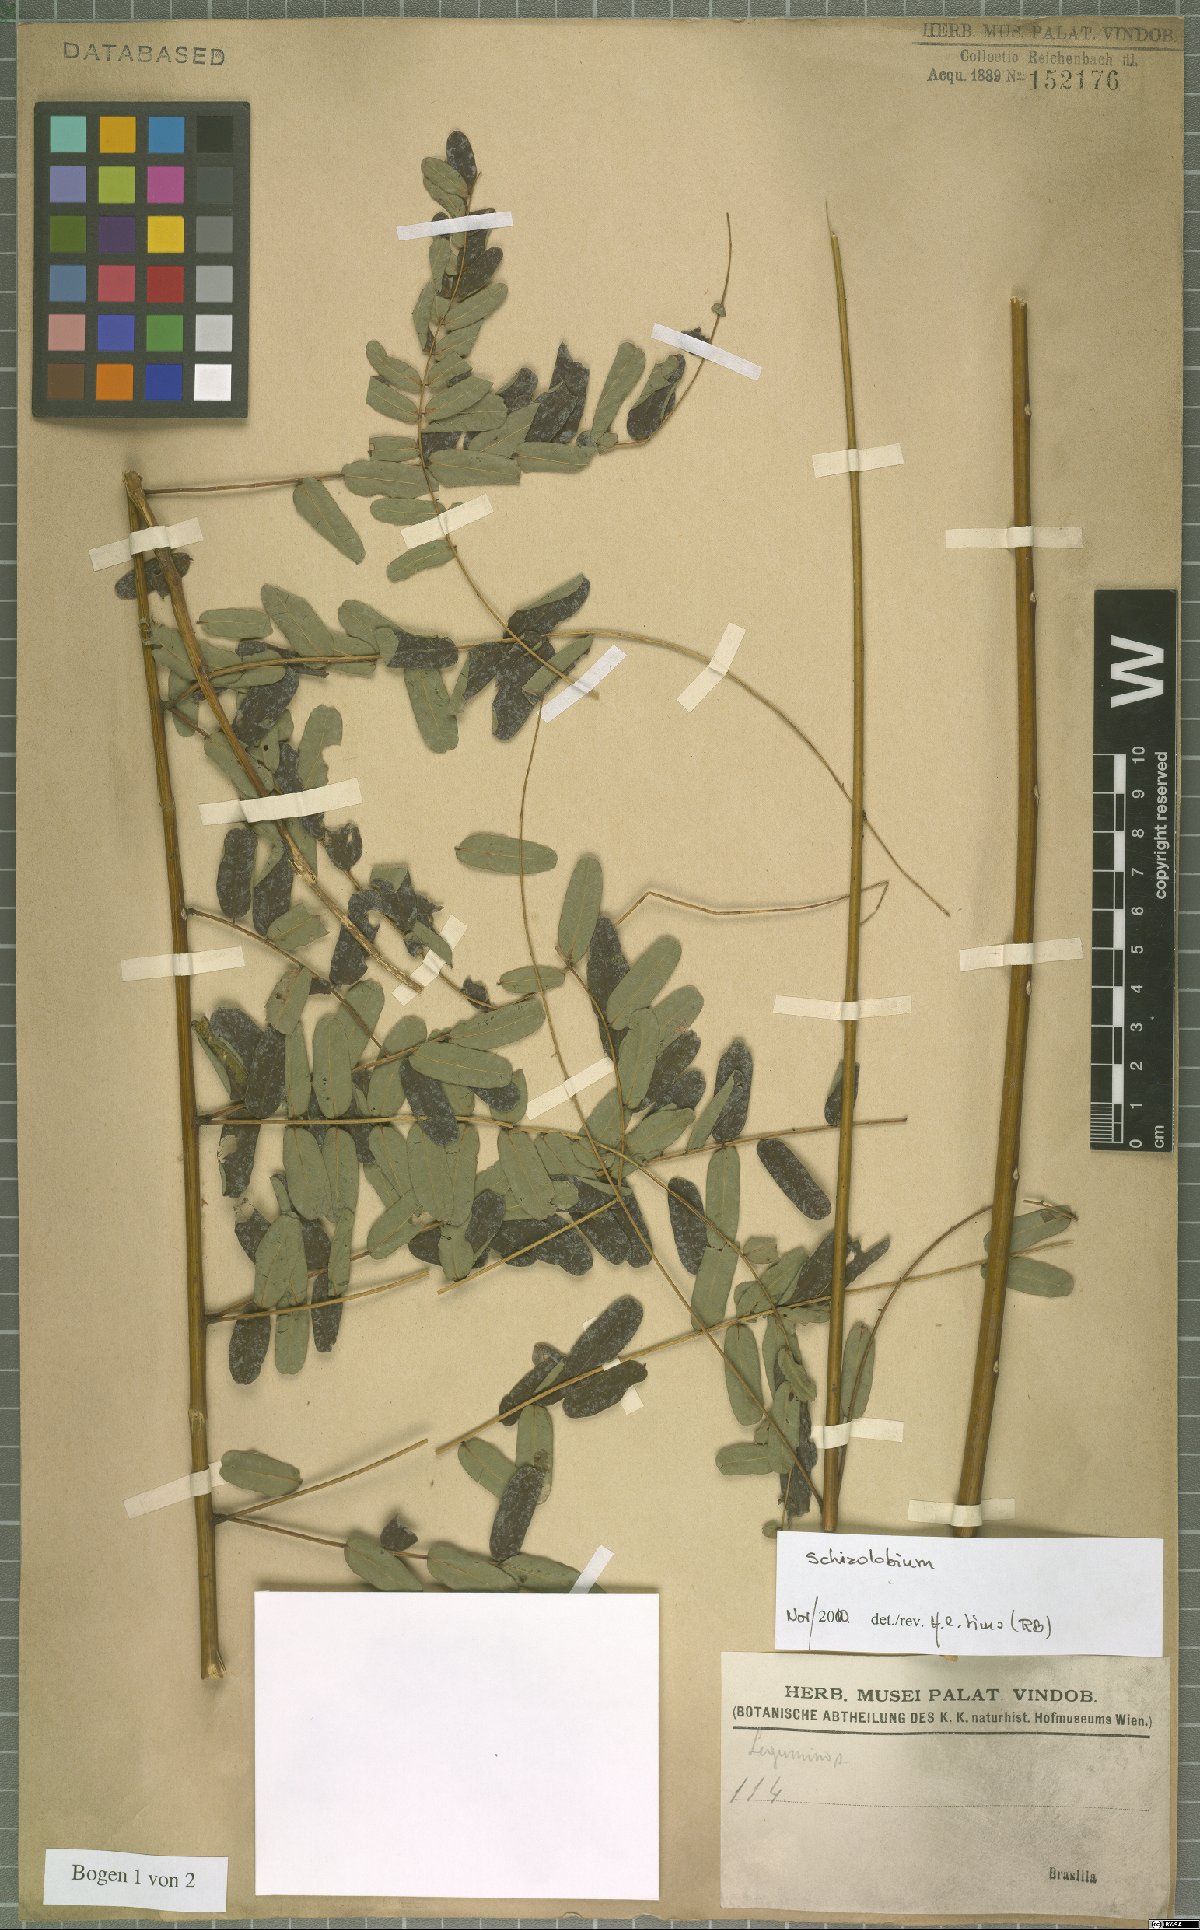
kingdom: Plantae
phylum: Tracheophyta
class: Magnoliopsida
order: Fabales
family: Fabaceae
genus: Schizolobium
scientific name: Schizolobium
